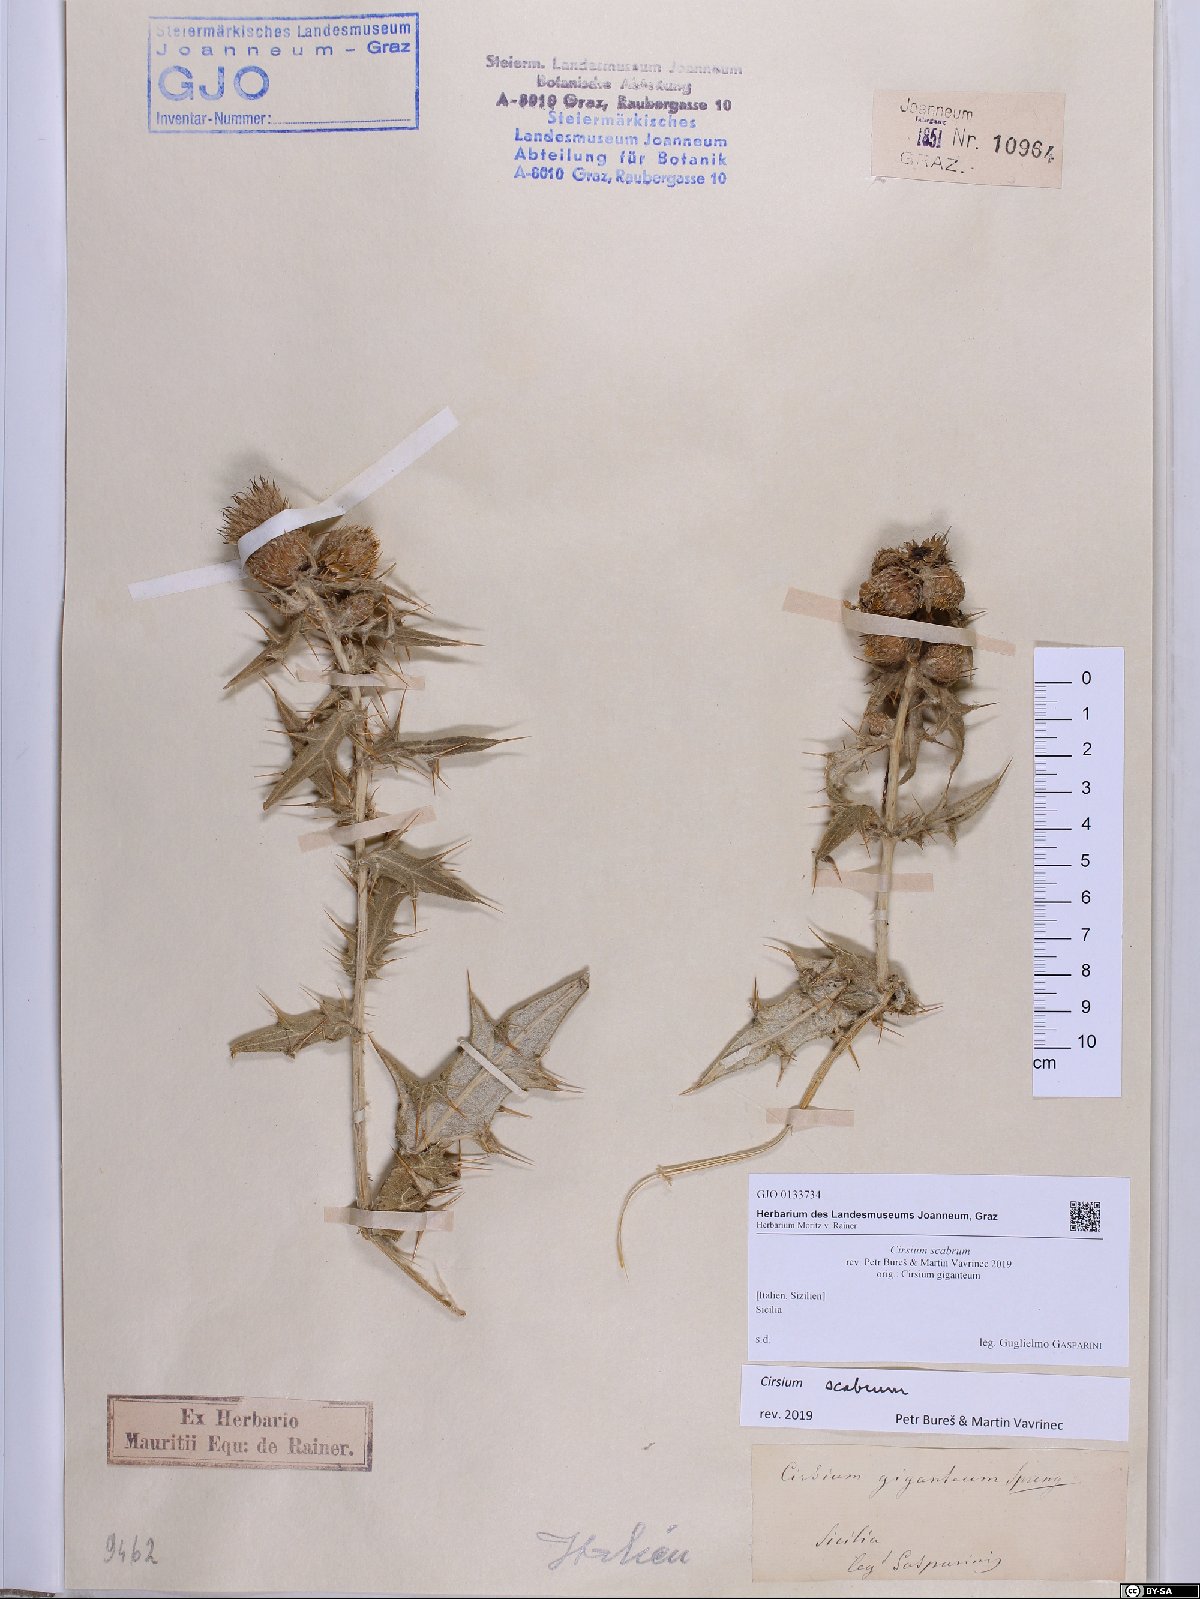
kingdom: Plantae
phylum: Tracheophyta
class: Magnoliopsida
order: Asterales
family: Asteraceae
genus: Lophiolepis
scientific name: Lophiolepis scabra
